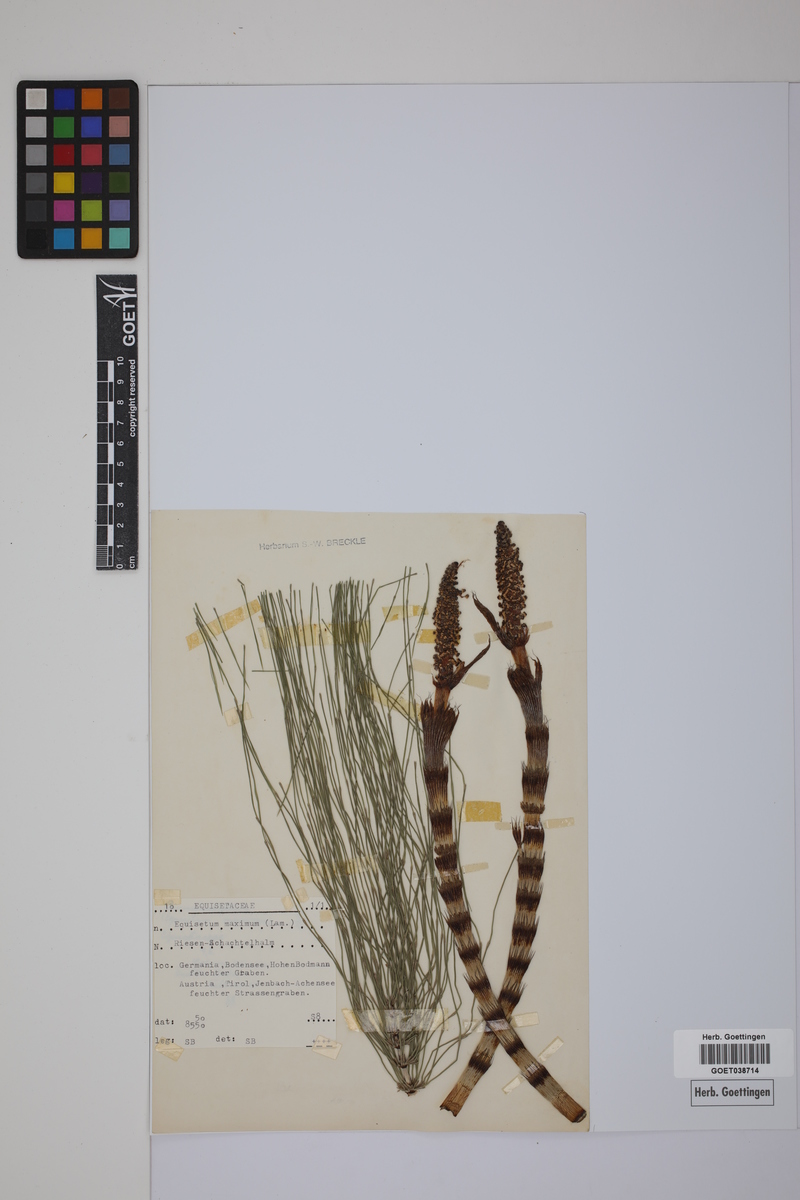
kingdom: Plantae
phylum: Tracheophyta
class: Polypodiopsida
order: Equisetales
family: Equisetaceae
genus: Equisetum
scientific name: Equisetum fluviatile
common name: Water horsetail
